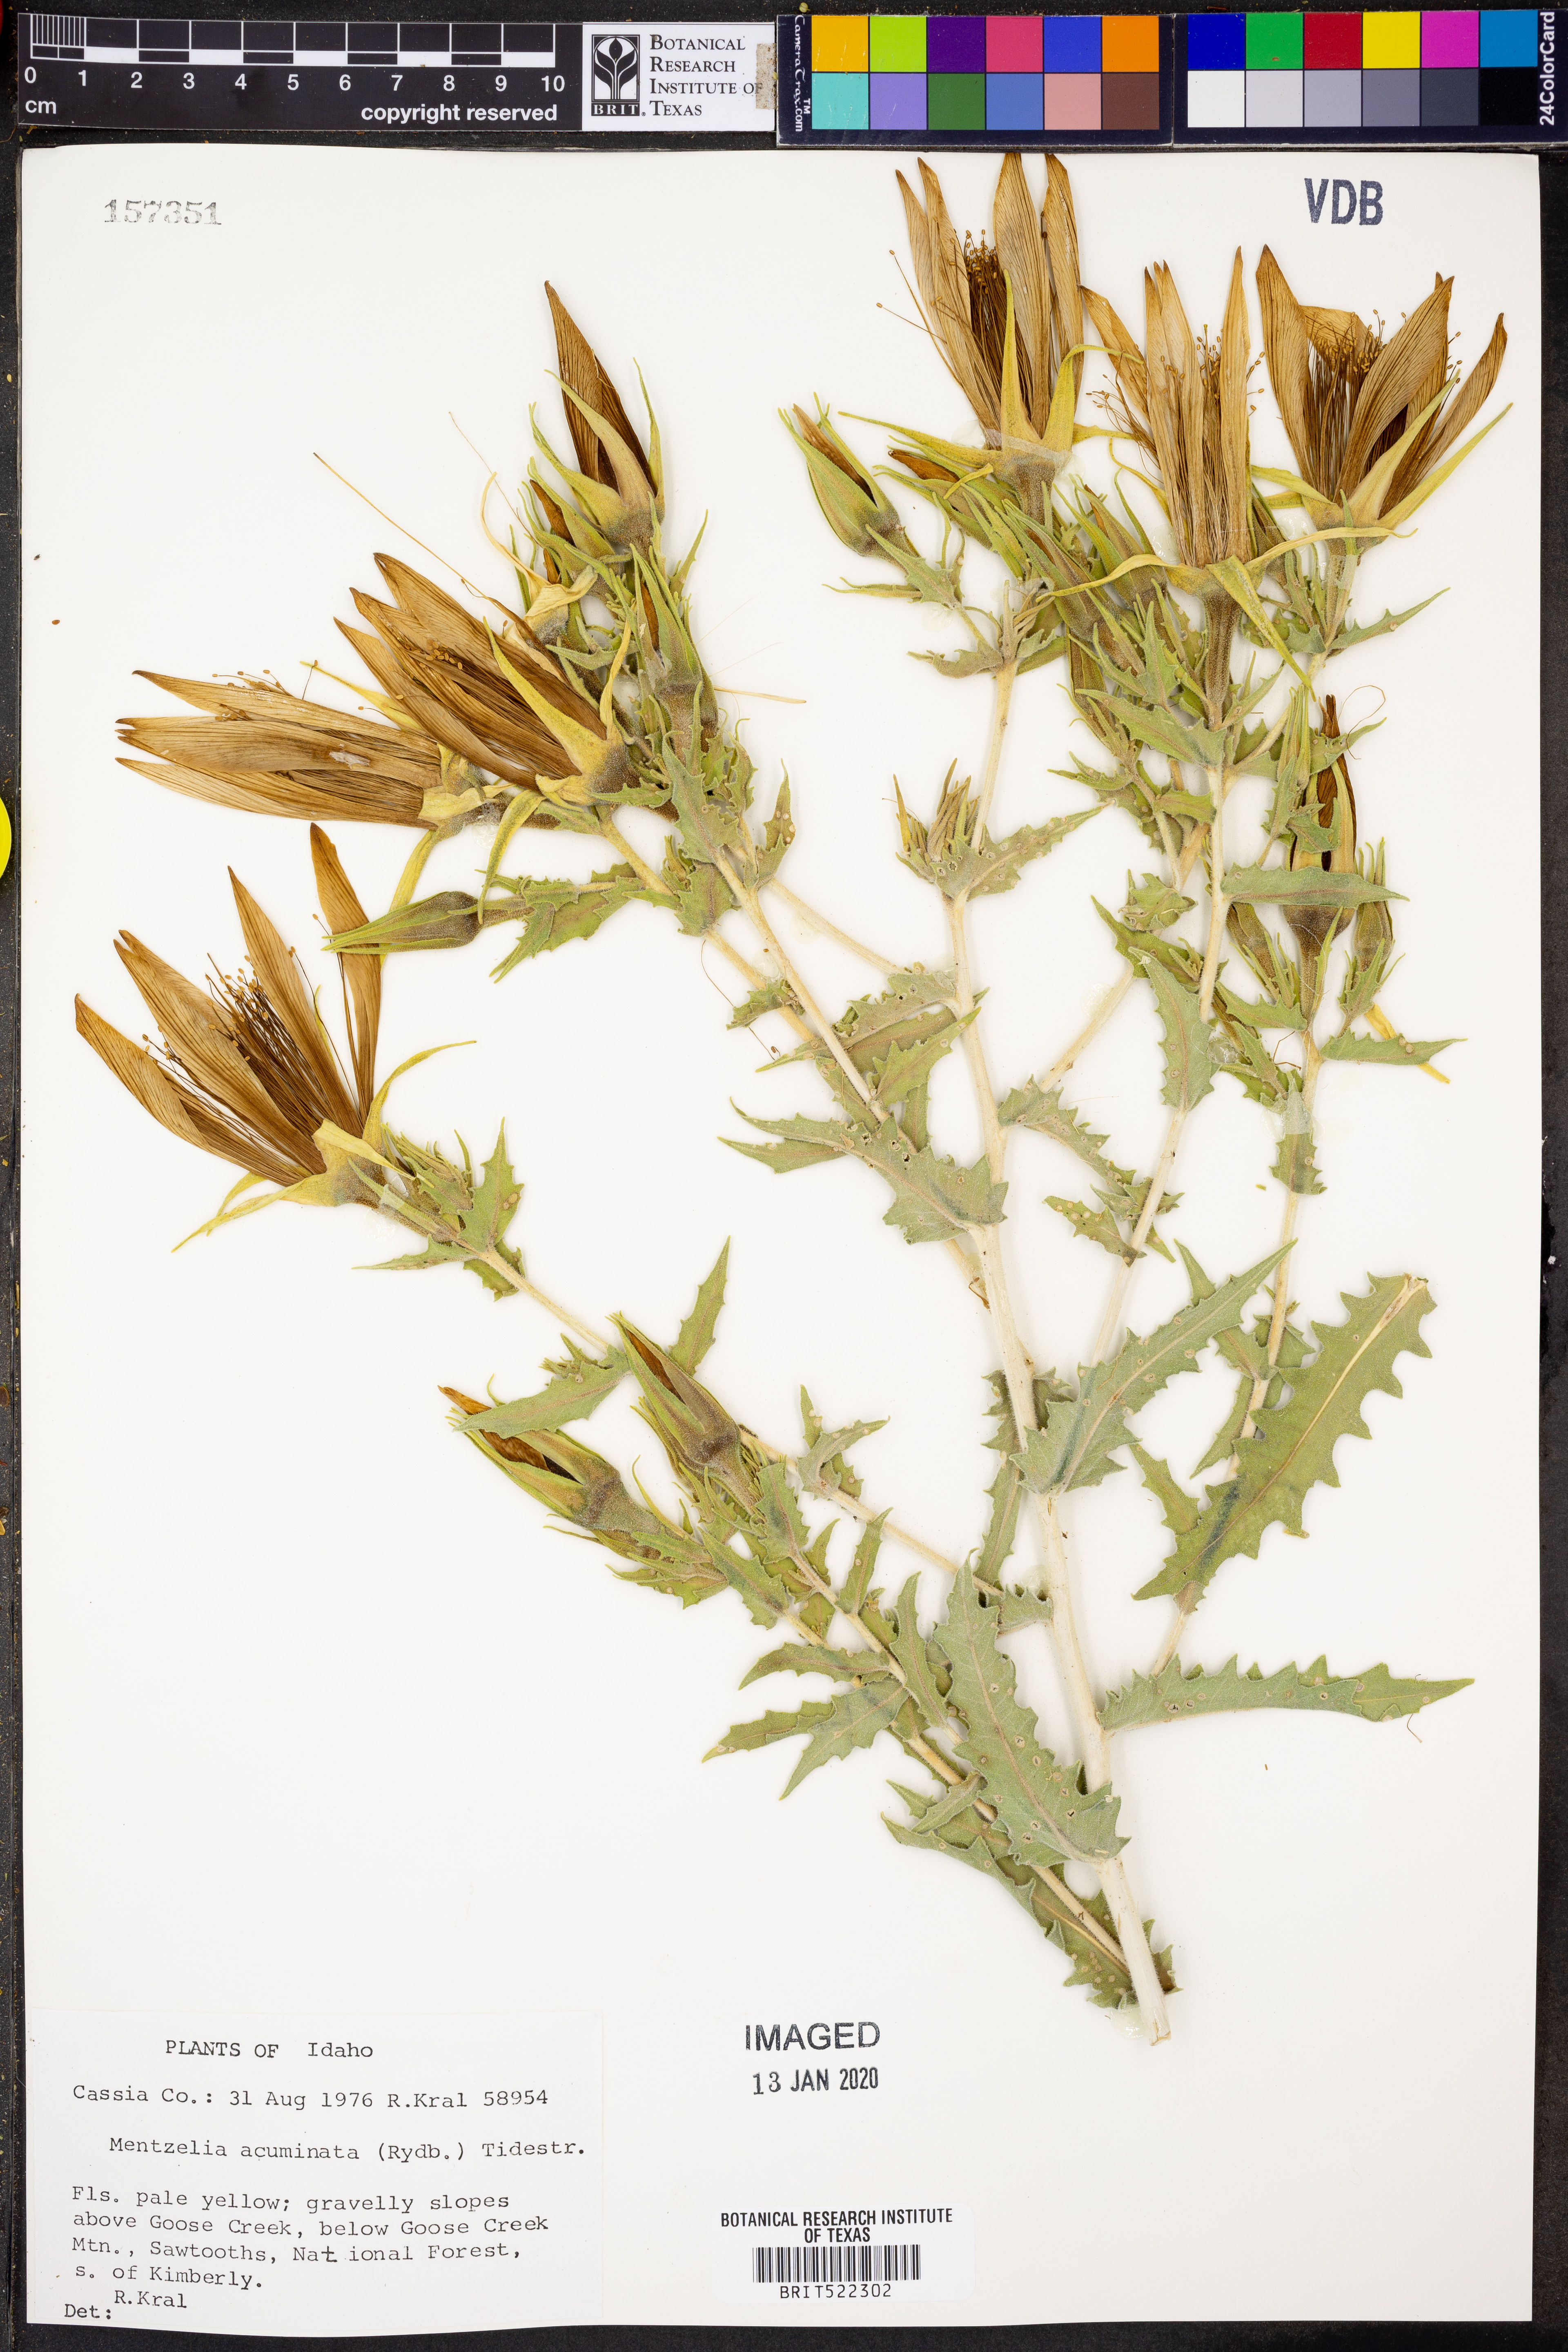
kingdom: Plantae
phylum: Tracheophyta
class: Magnoliopsida
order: Cornales
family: Loasaceae
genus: Mentzelia
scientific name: Mentzelia laevicaulis
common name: Smooth-stem blazingstar
